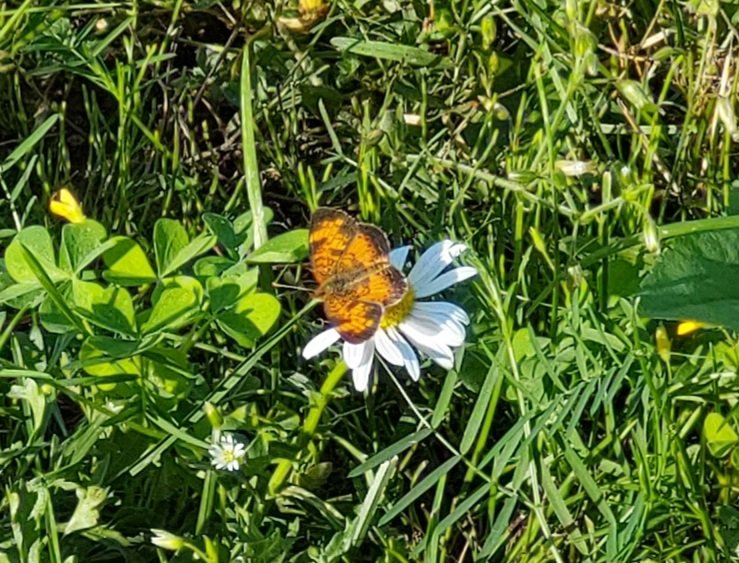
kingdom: Animalia
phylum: Arthropoda
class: Insecta
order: Lepidoptera
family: Nymphalidae
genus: Phyciodes
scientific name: Phyciodes tharos
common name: Northern Crescent
